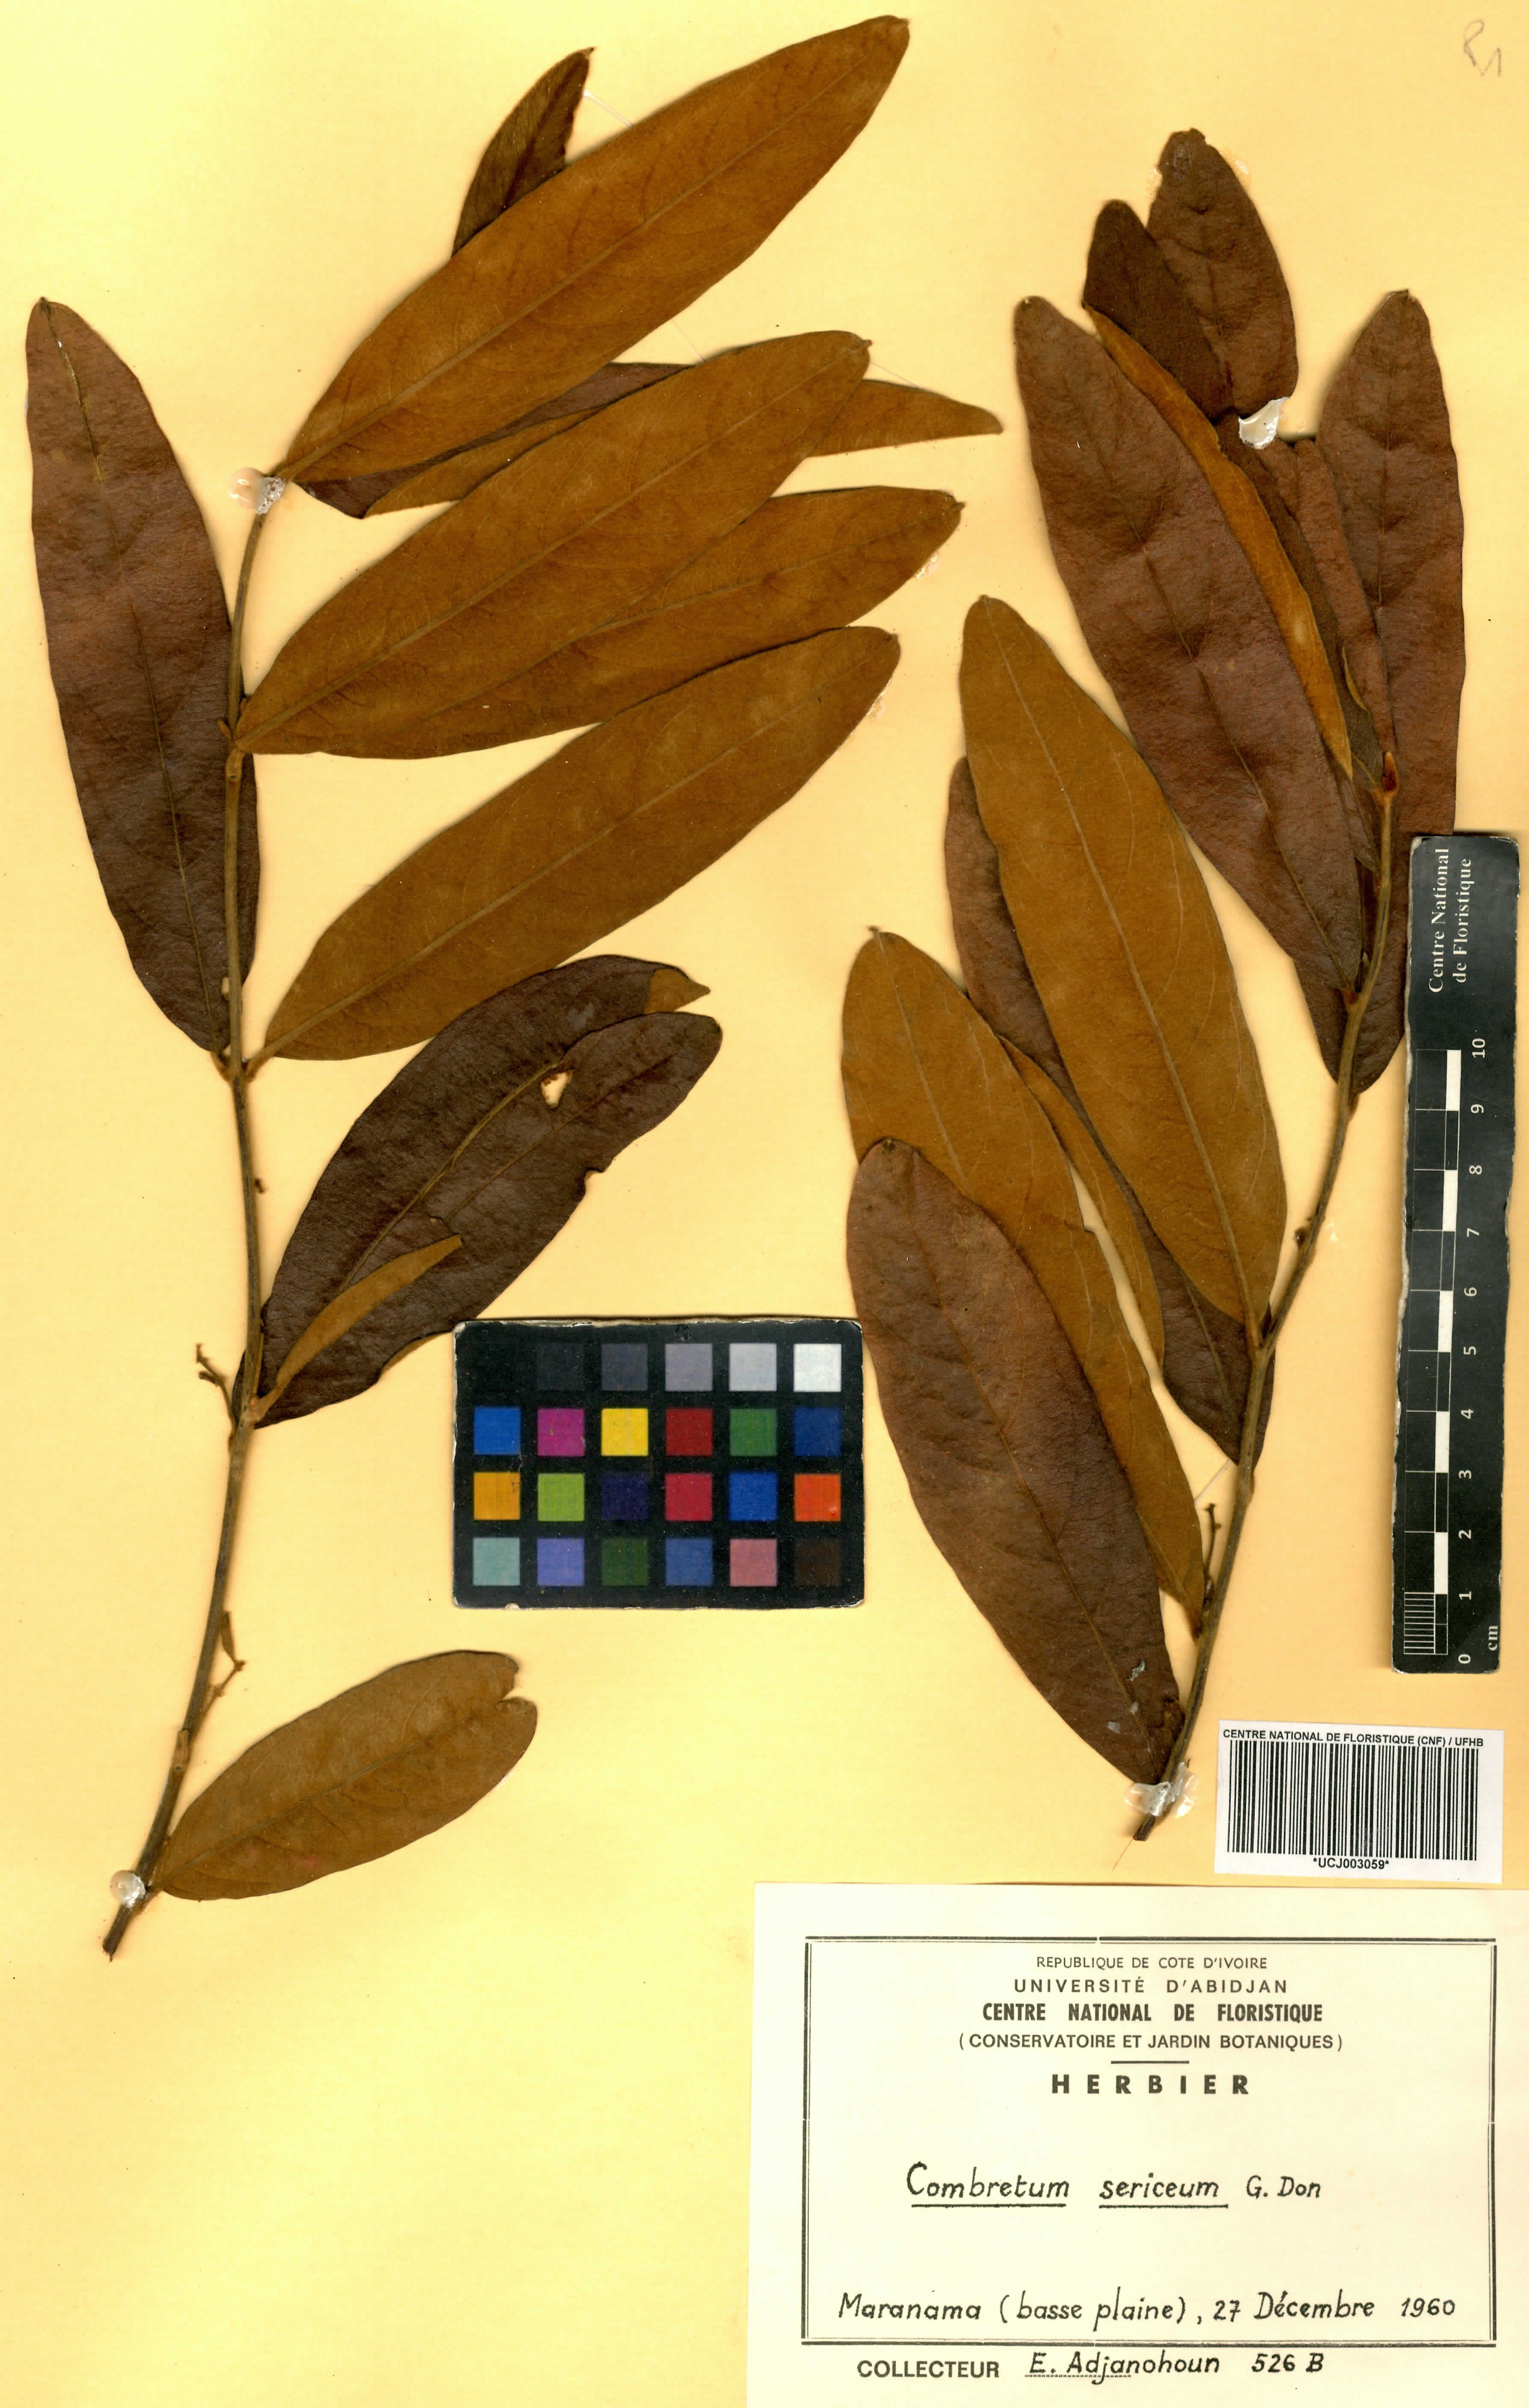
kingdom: Plantae
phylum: Tracheophyta
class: Magnoliopsida
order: Myrtales
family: Combretaceae
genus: Combretum
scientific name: Combretum sericeum
